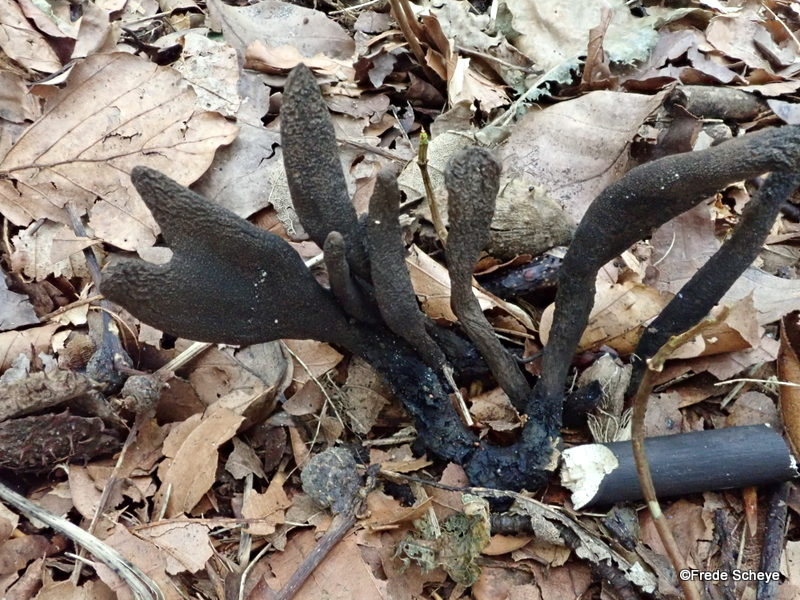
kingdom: Fungi
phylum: Ascomycota
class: Sordariomycetes
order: Xylariales
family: Xylariaceae
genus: Xylaria
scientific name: Xylaria longipes
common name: slank stødsvamp
